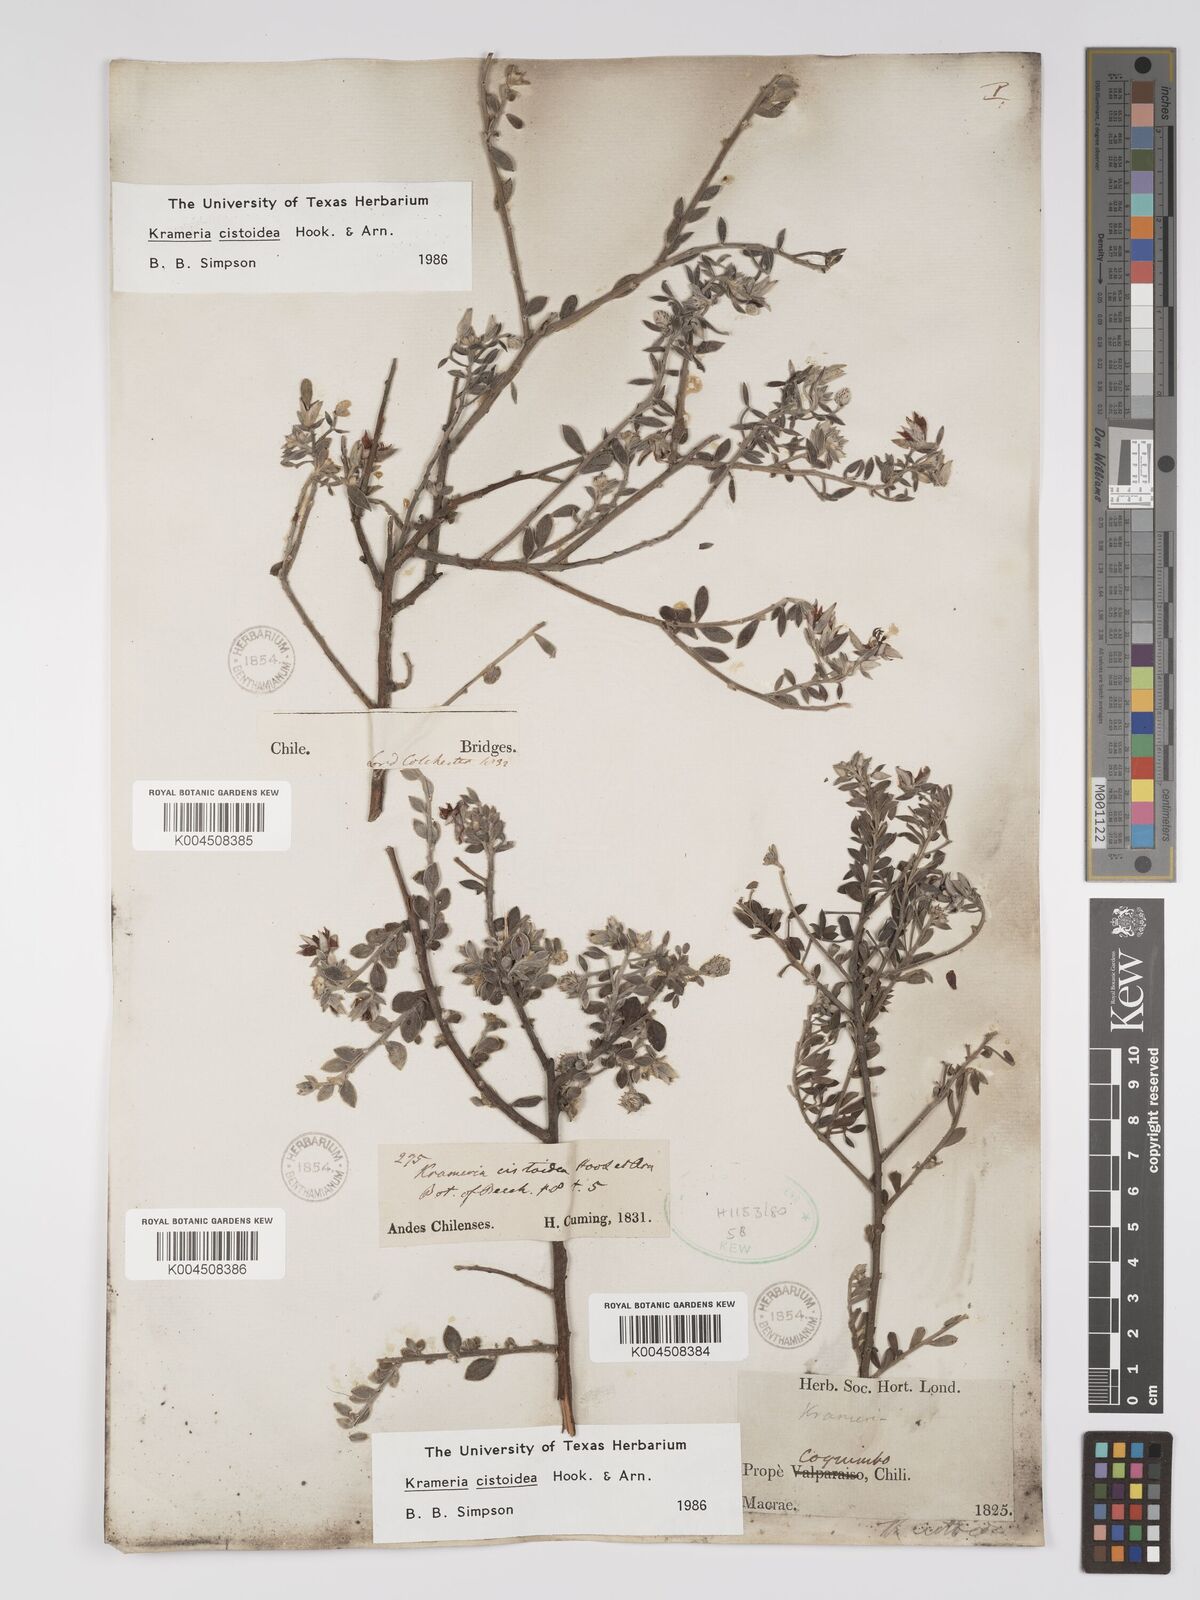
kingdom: Plantae
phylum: Tracheophyta
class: Magnoliopsida
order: Zygophyllales
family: Krameriaceae
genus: Krameria
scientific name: Krameria cistoidea
